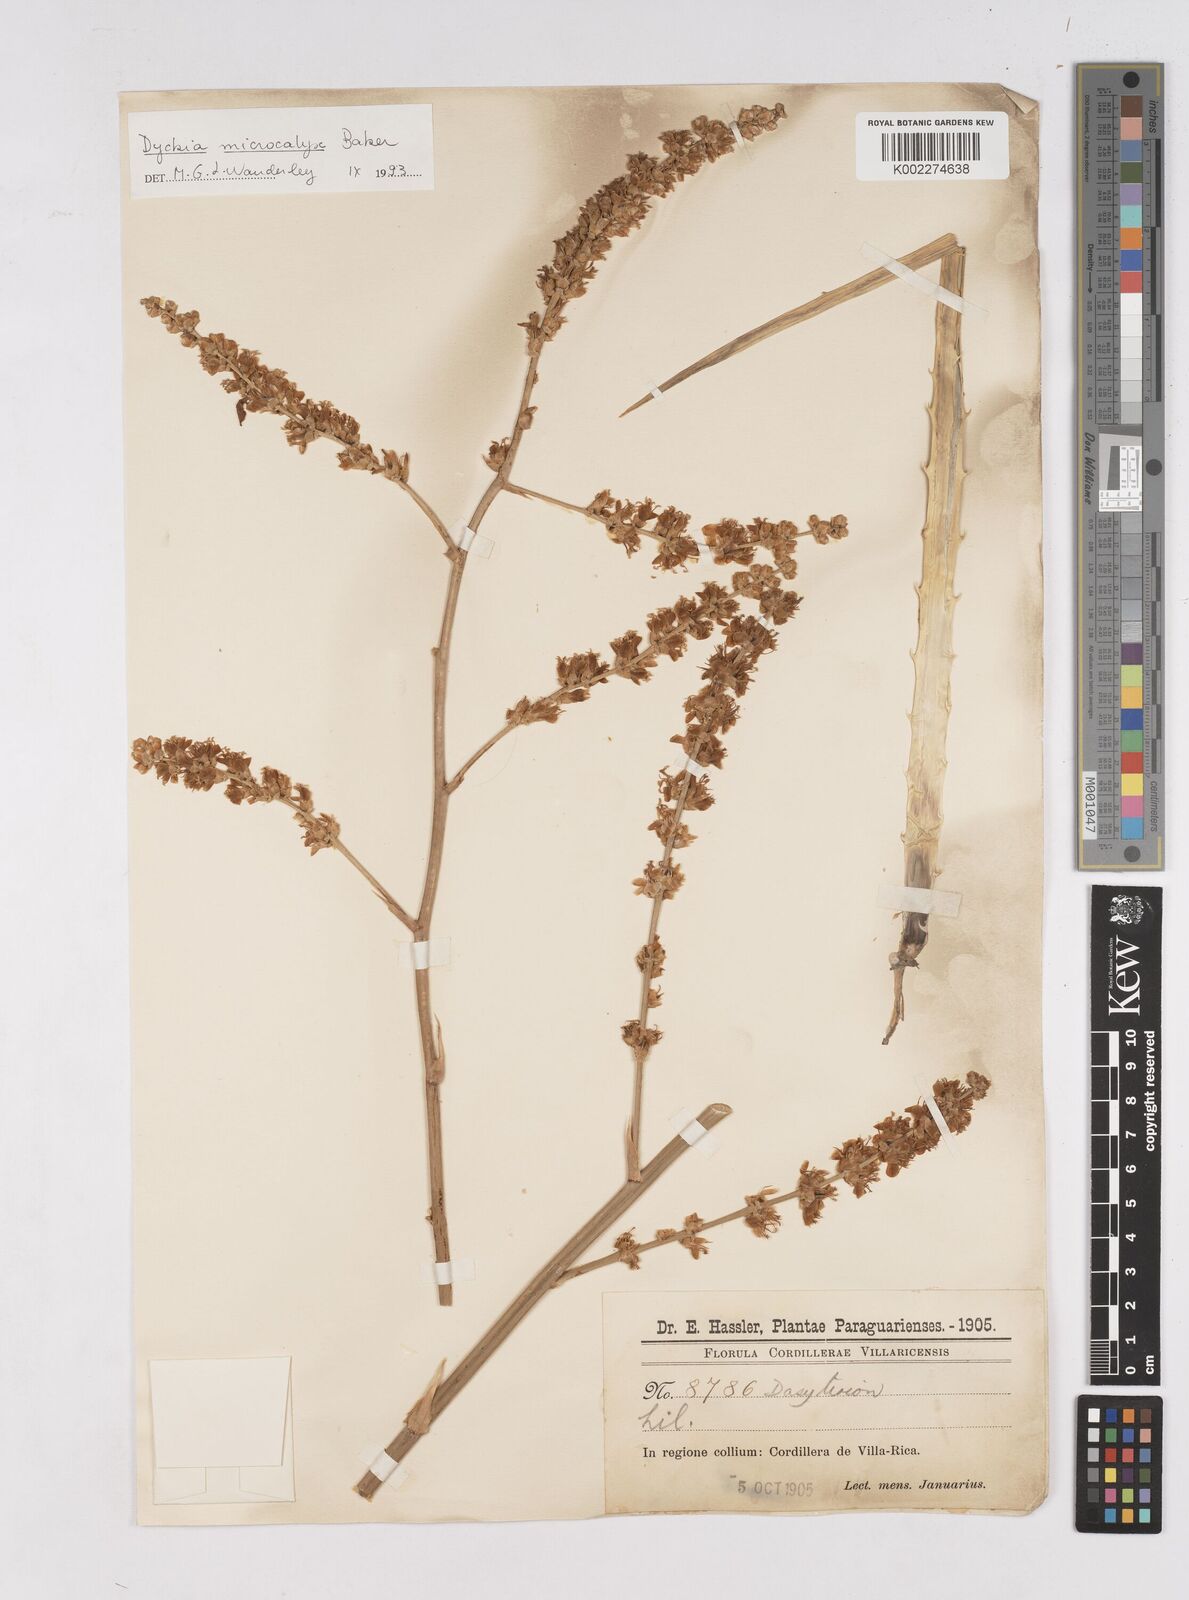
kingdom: Plantae
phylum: Tracheophyta
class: Liliopsida
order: Poales
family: Bromeliaceae
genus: Dyckia
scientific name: Dyckia microcalyx
